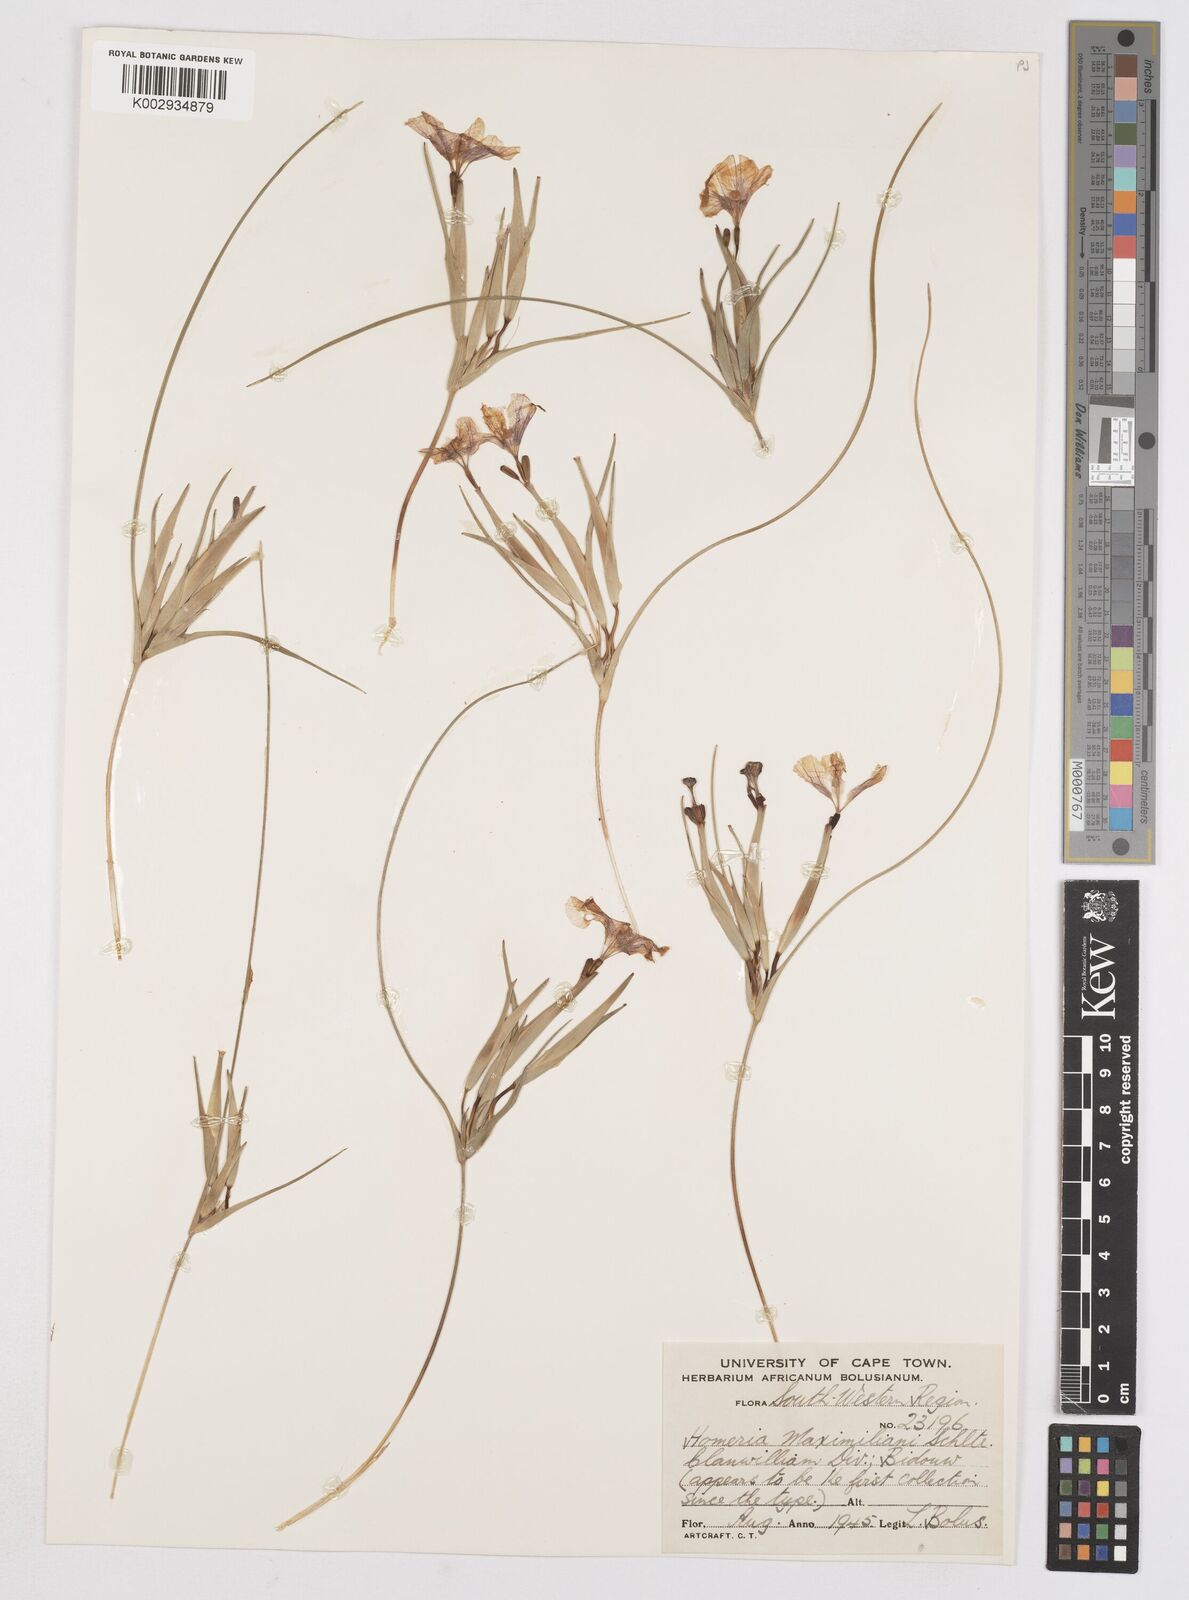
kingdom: Plantae
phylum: Tracheophyta
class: Liliopsida
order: Asparagales
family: Iridaceae
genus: Moraea
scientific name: Moraea maximiliani
